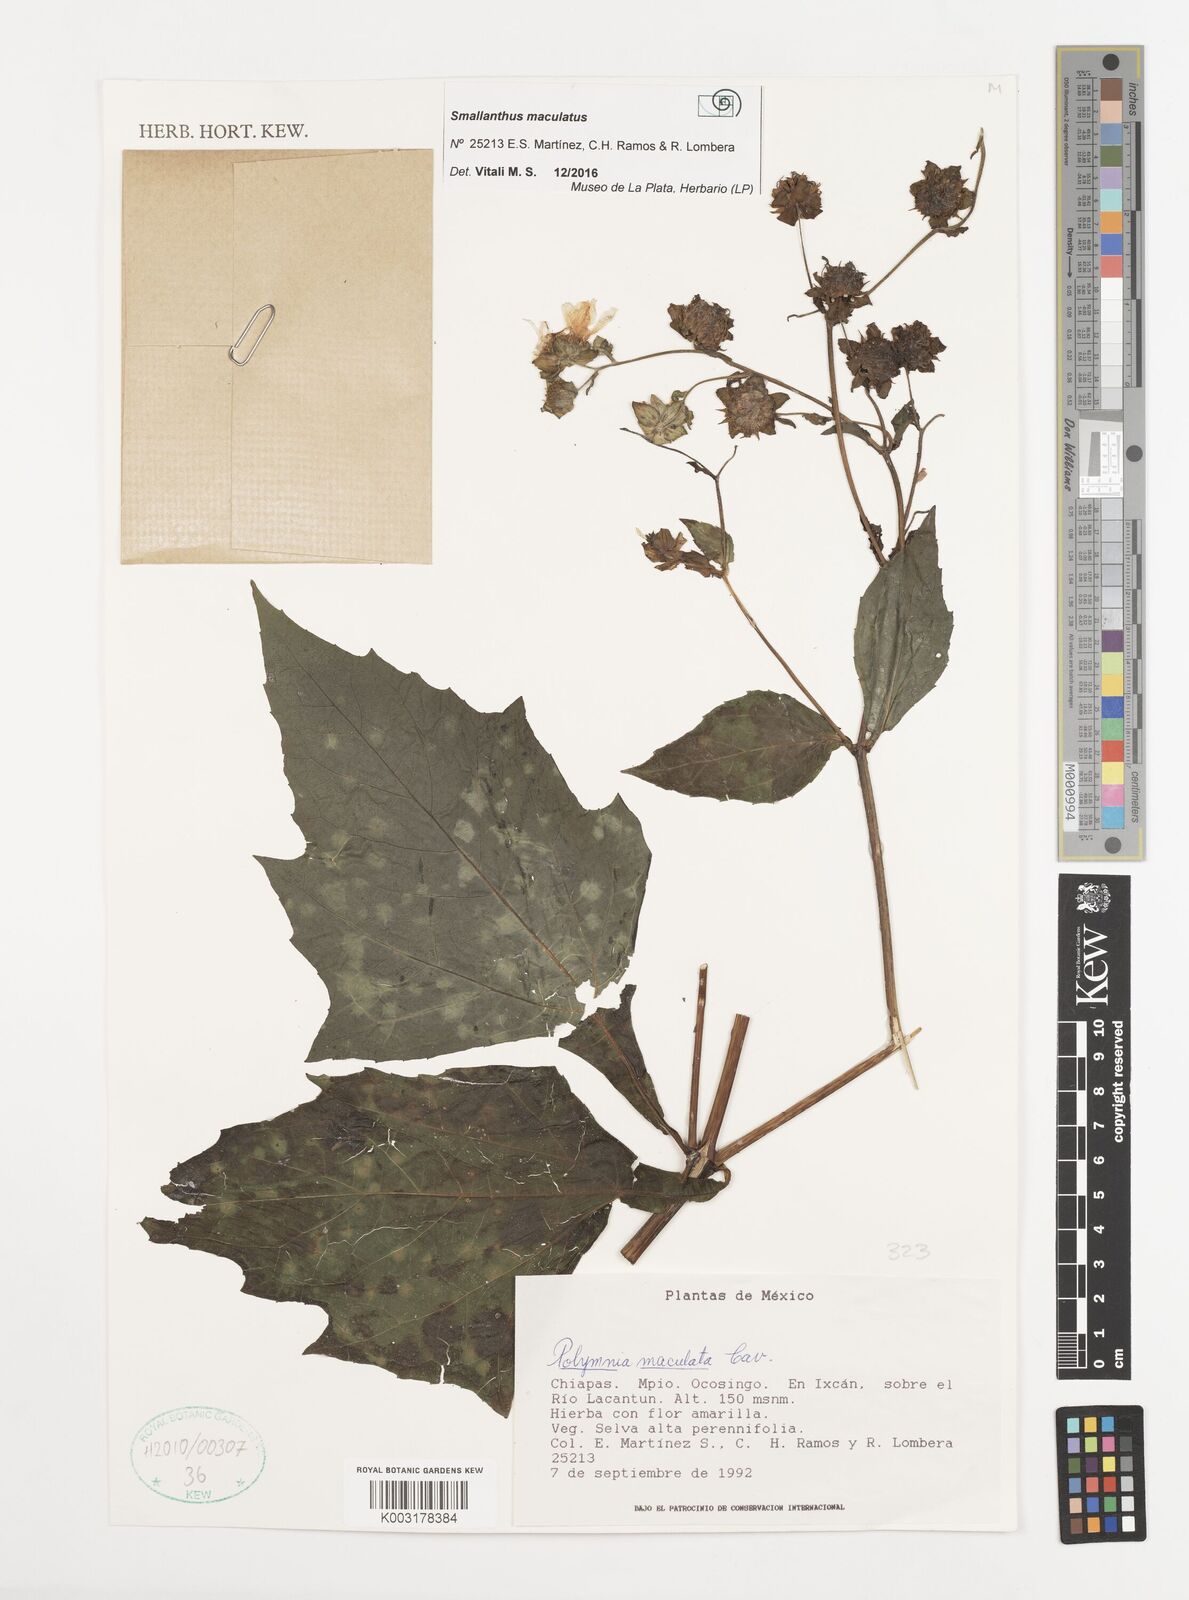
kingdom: Plantae
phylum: Tracheophyta
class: Magnoliopsida
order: Asterales
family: Asteraceae
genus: Smallanthus
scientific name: Smallanthus maculatus
